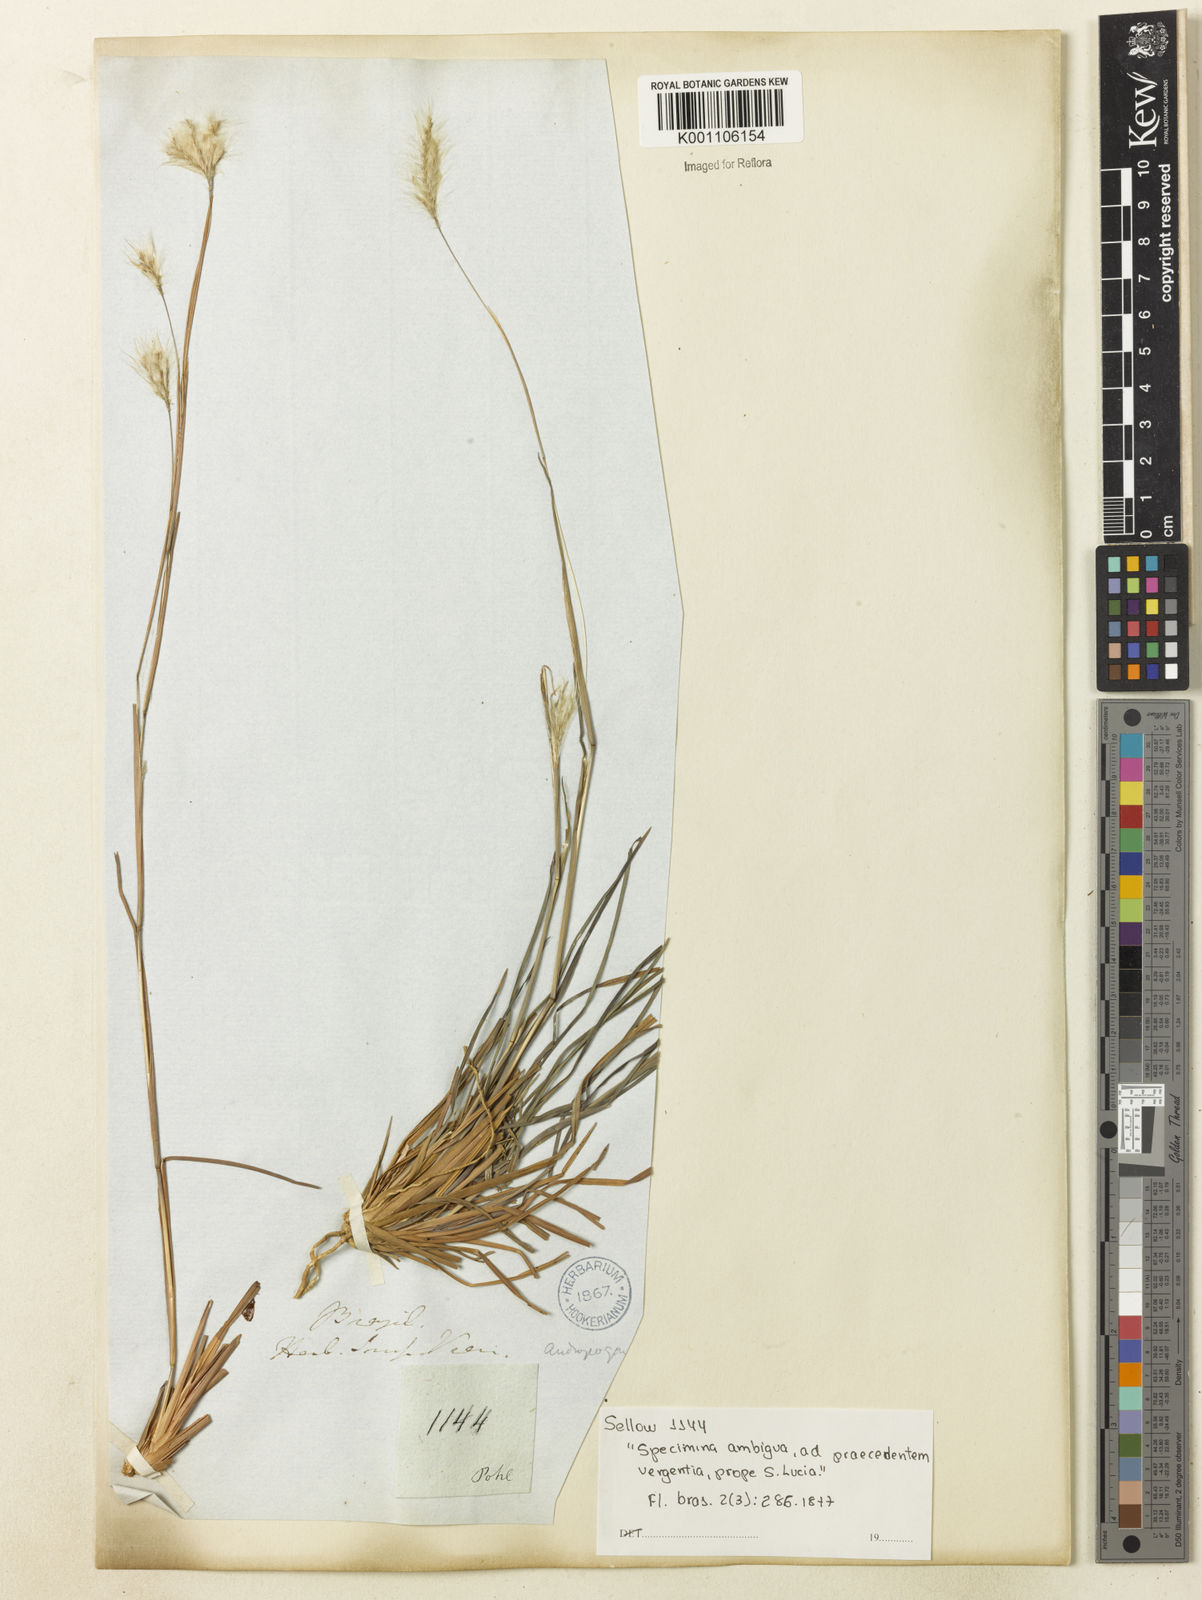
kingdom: Plantae
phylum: Tracheophyta
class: Liliopsida
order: Poales
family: Poaceae
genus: Andropogon
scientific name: Andropogon leucostachyus
